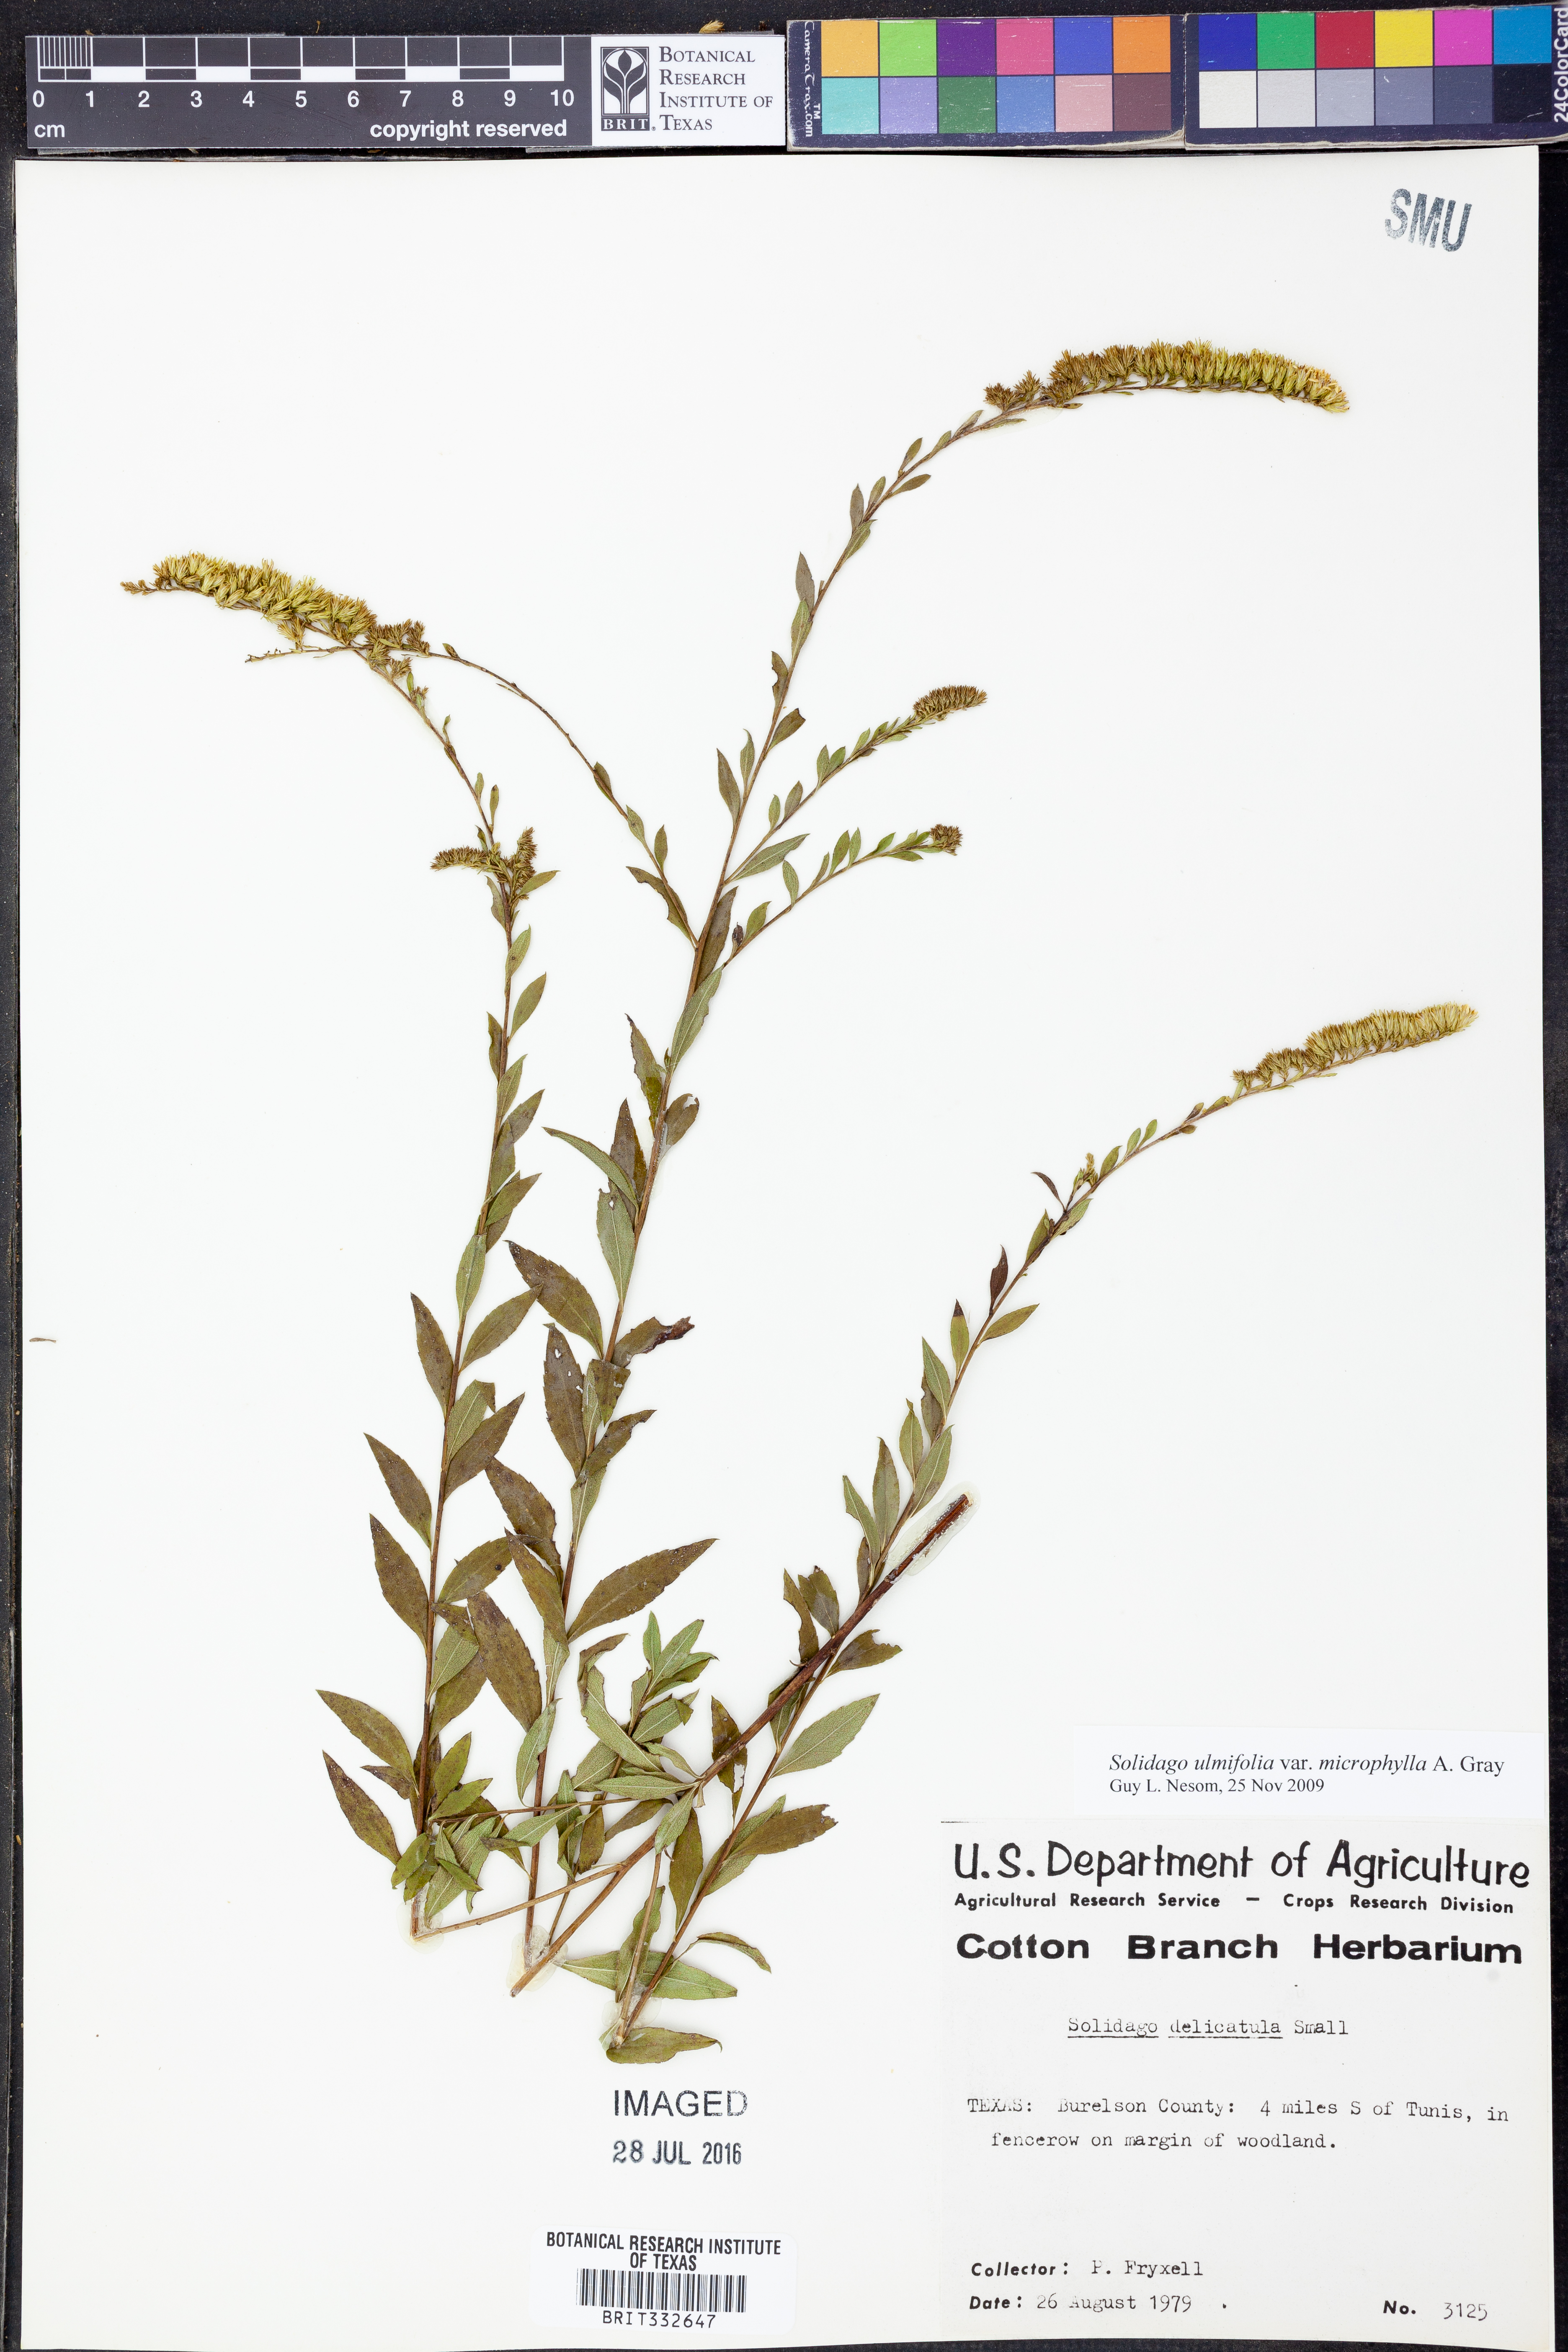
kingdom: Plantae
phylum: Tracheophyta
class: Magnoliopsida
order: Asterales
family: Asteraceae
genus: Solidago
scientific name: Solidago delicatula
